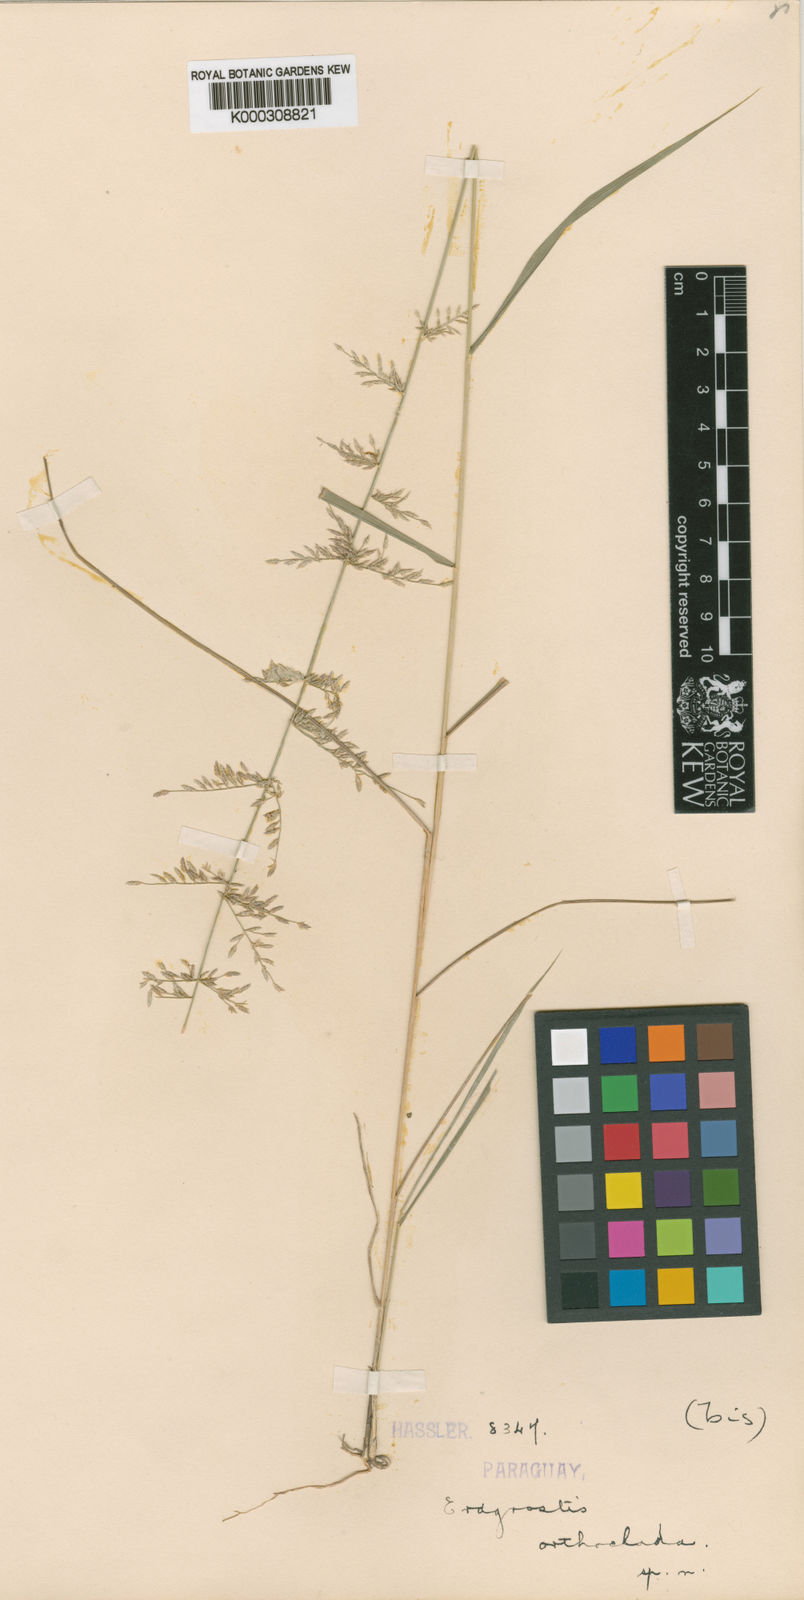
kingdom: Plantae
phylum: Tracheophyta
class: Liliopsida
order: Poales
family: Poaceae
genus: Eragrostis
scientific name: Eragrostis orthoclada
